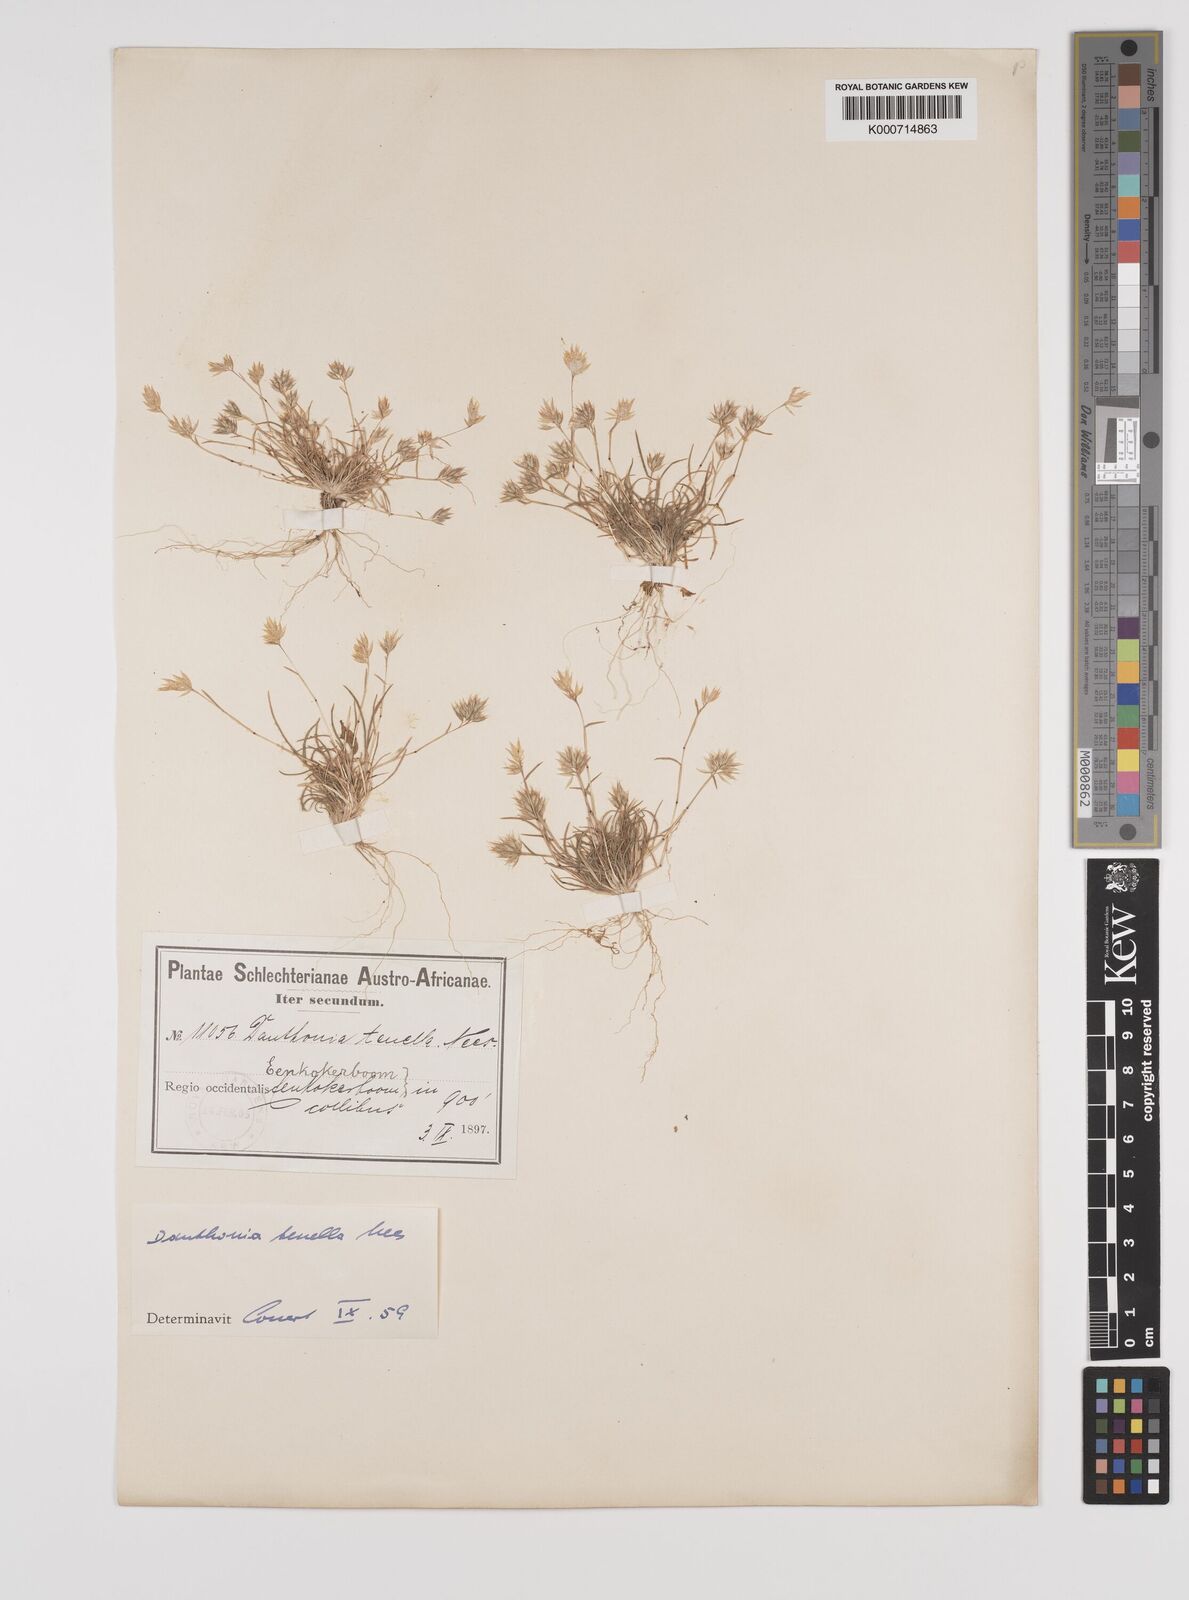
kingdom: Plantae
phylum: Tracheophyta
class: Liliopsida
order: Poales
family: Poaceae
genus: Rytidosperma
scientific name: Rytidosperma
